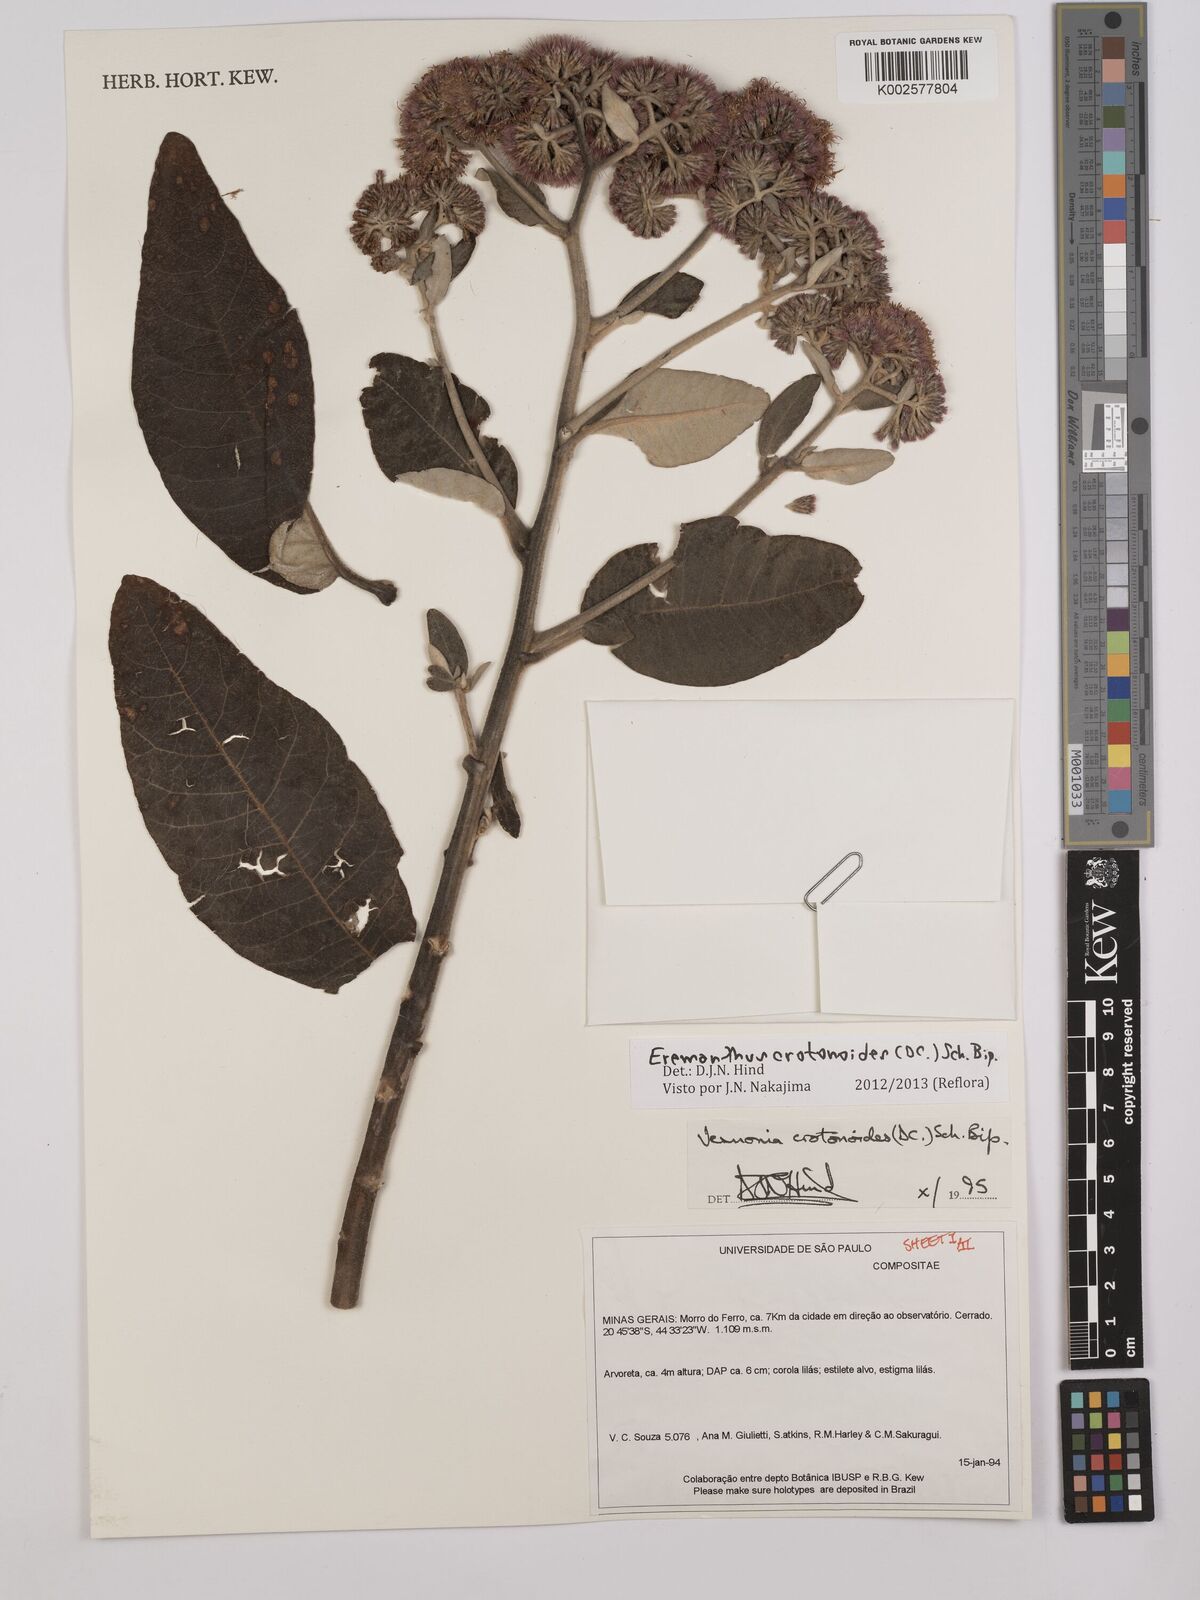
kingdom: Plantae
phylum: Tracheophyta
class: Magnoliopsida
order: Asterales
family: Asteraceae
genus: Eremanthus
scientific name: Eremanthus crotonoides
